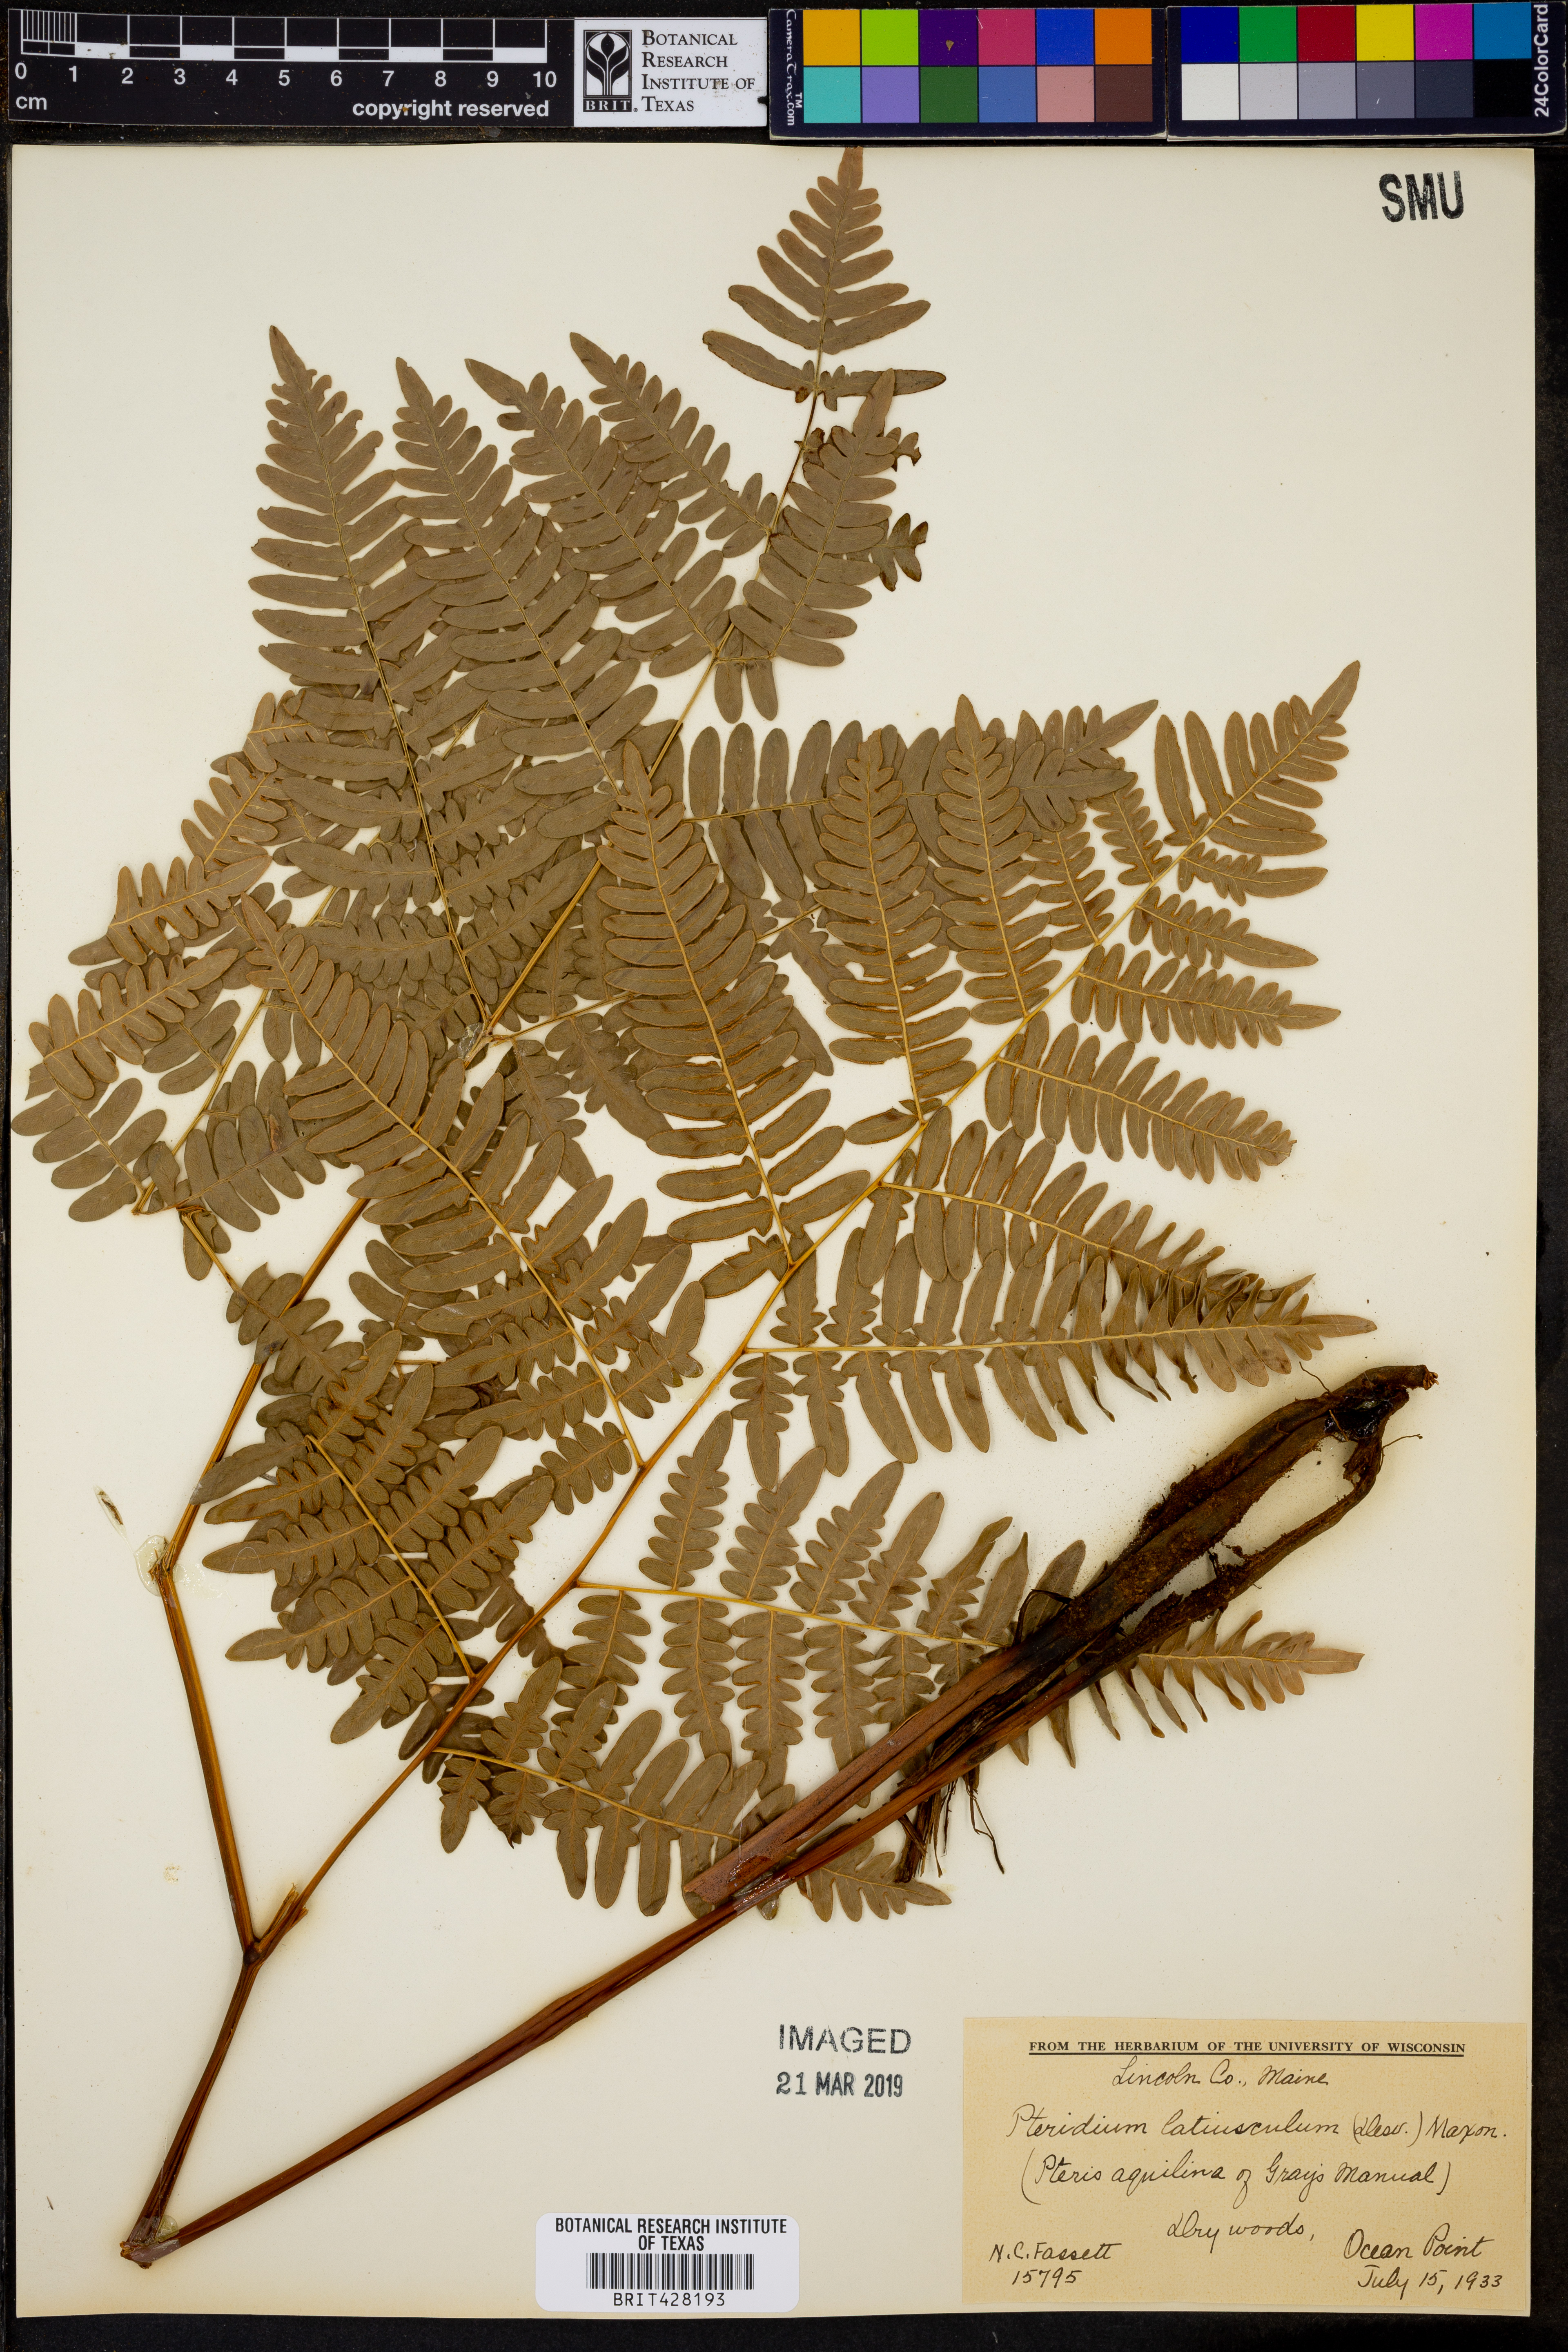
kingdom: Plantae
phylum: Tracheophyta
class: Polypodiopsida
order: Polypodiales
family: Dennstaedtiaceae
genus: Pteridium
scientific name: Pteridium aquilinum
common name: Bracken
